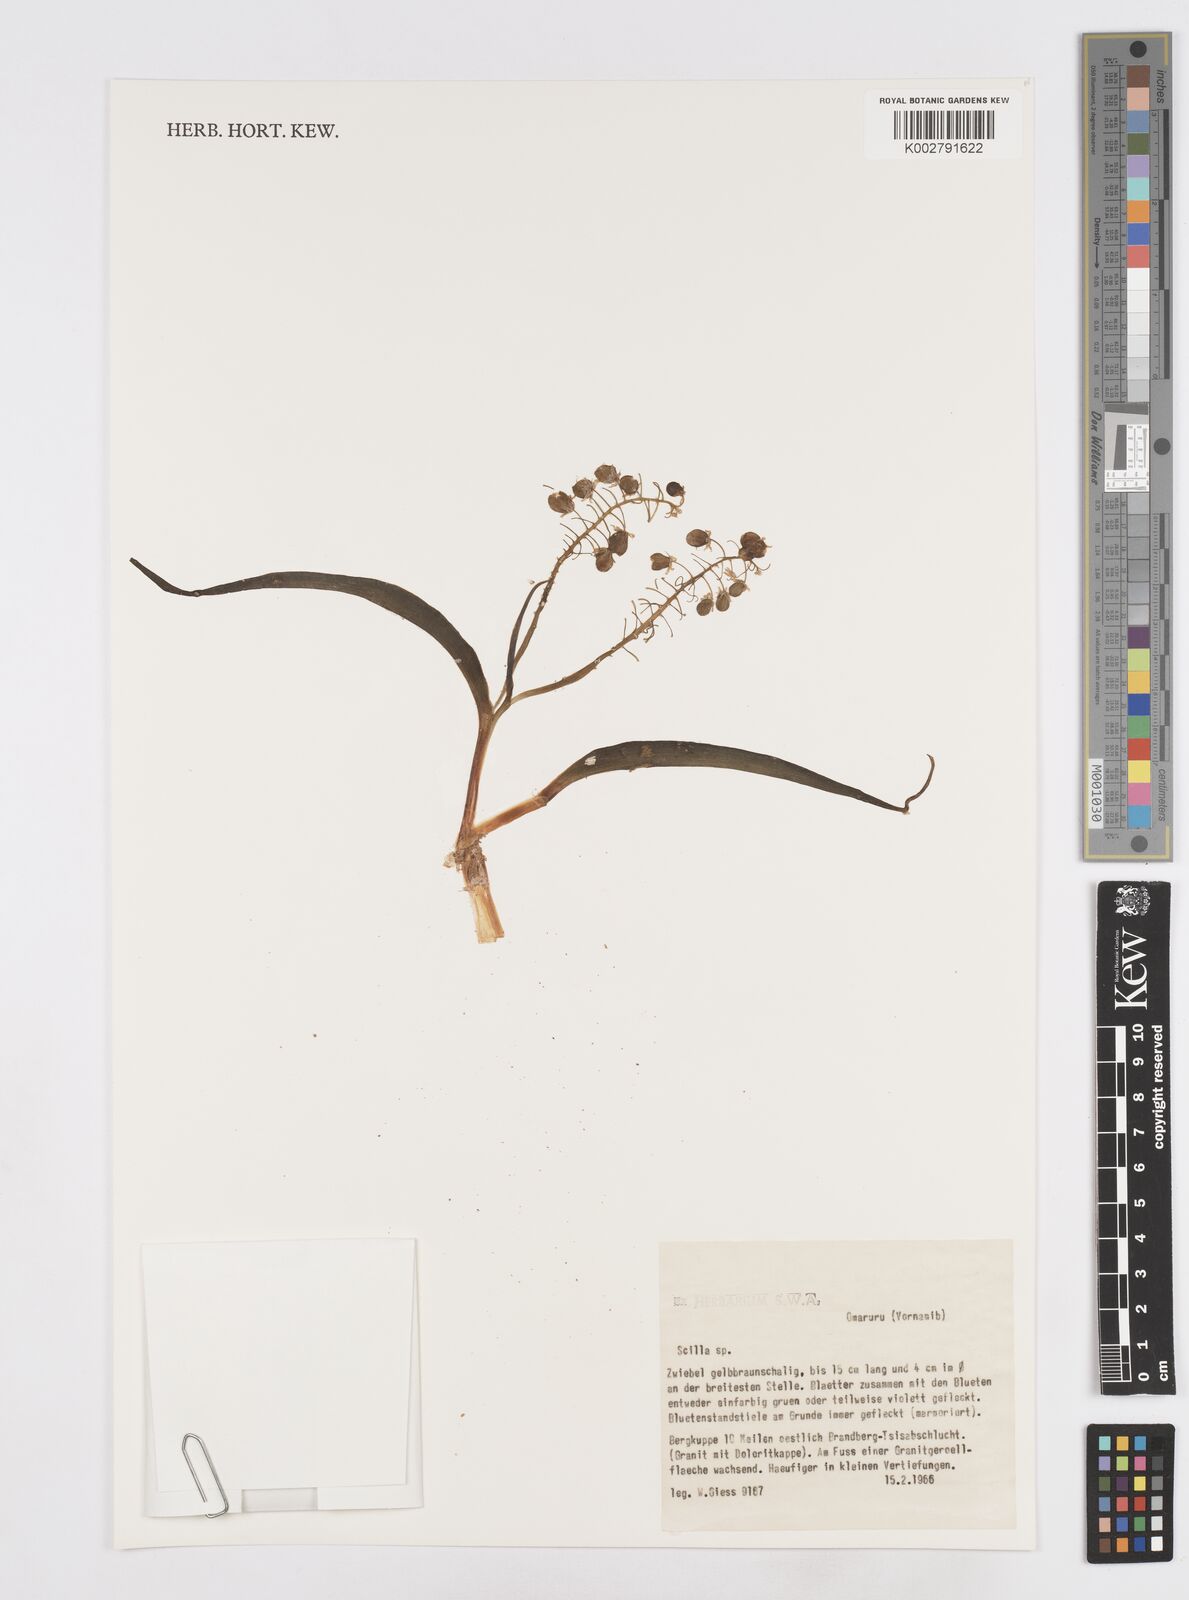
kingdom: Plantae
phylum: Tracheophyta
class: Liliopsida
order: Asparagales
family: Asparagaceae
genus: Scilla
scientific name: Scilla
